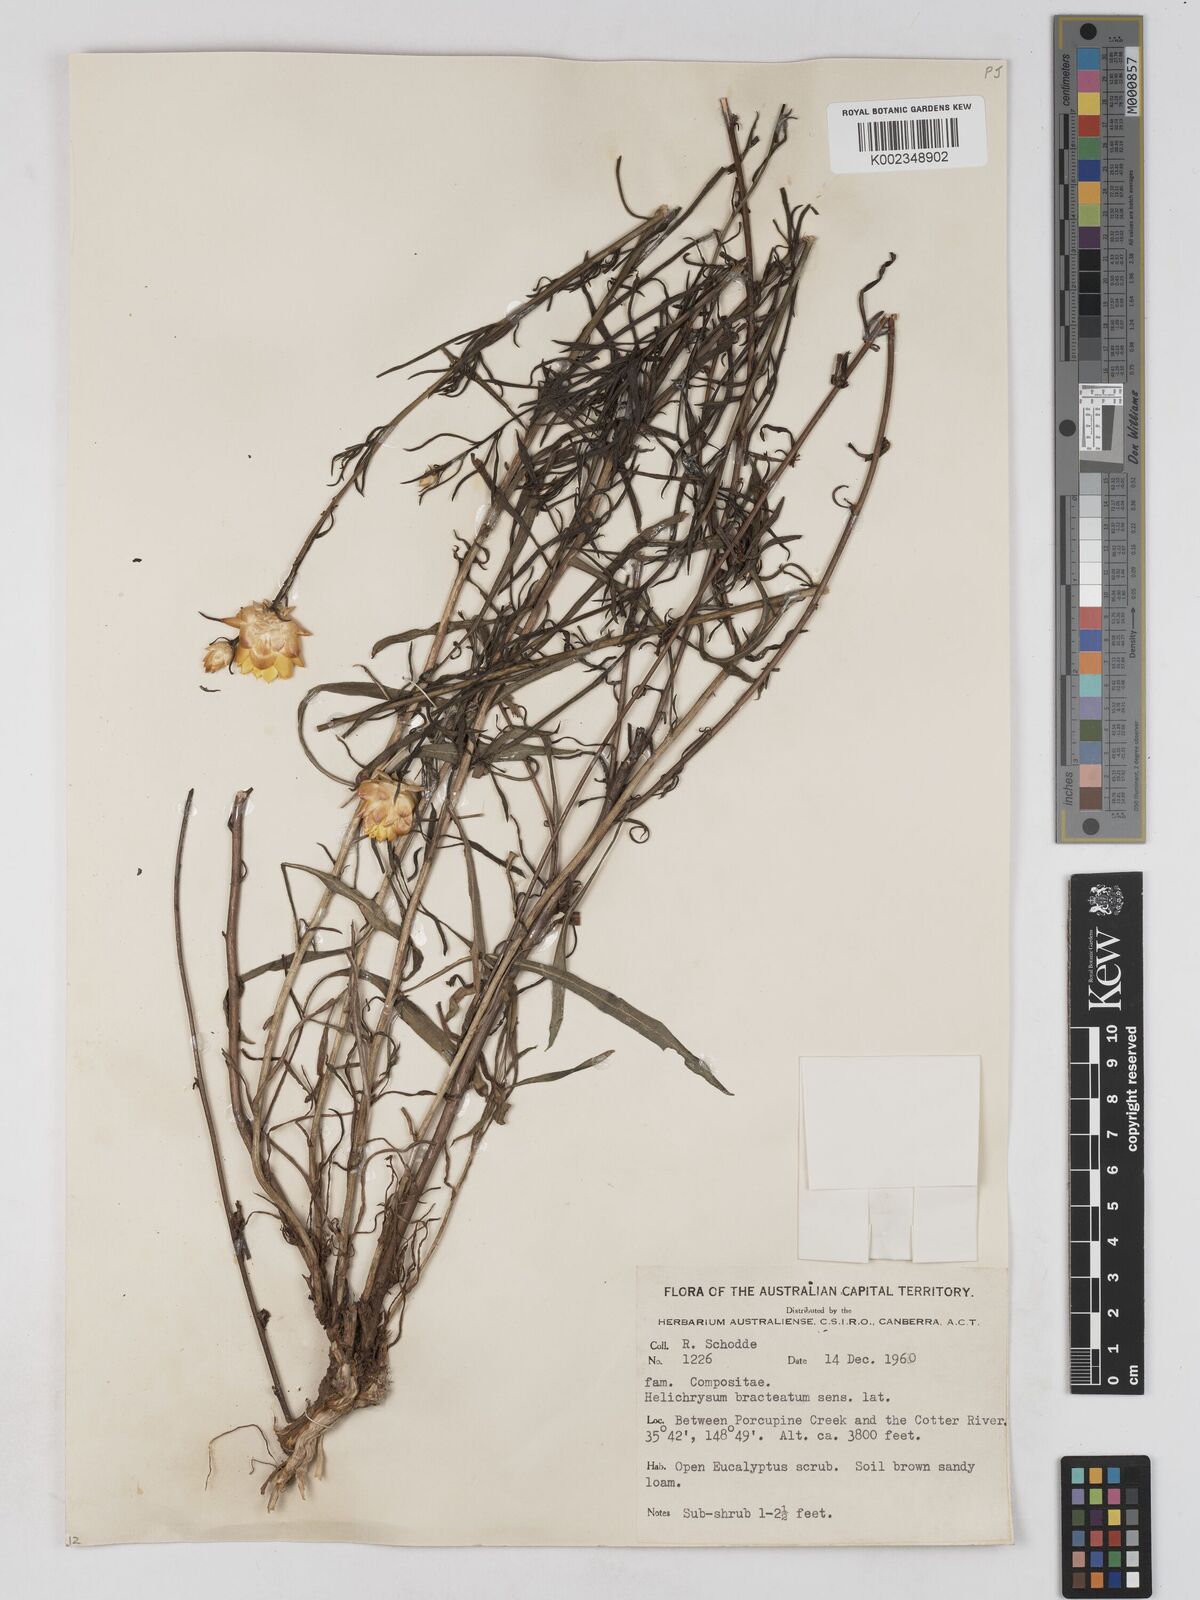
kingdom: Plantae
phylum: Tracheophyta
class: Magnoliopsida
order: Asterales
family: Asteraceae
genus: Xerochrysum
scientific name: Xerochrysum bracteatum
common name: Bracted strawflower
